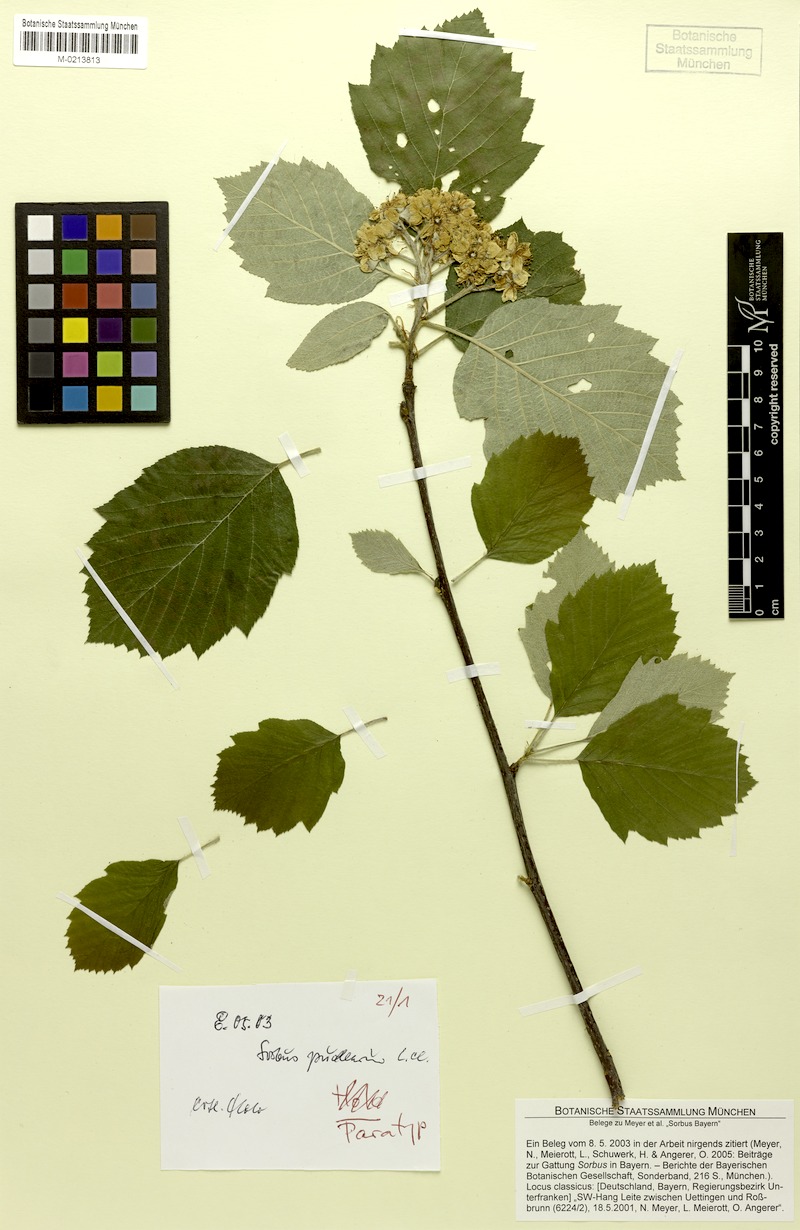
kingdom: Plantae
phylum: Tracheophyta
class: Magnoliopsida
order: Rosales
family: Rosaceae
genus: Karpatiosorbus
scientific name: Karpatiosorbus puellarum
